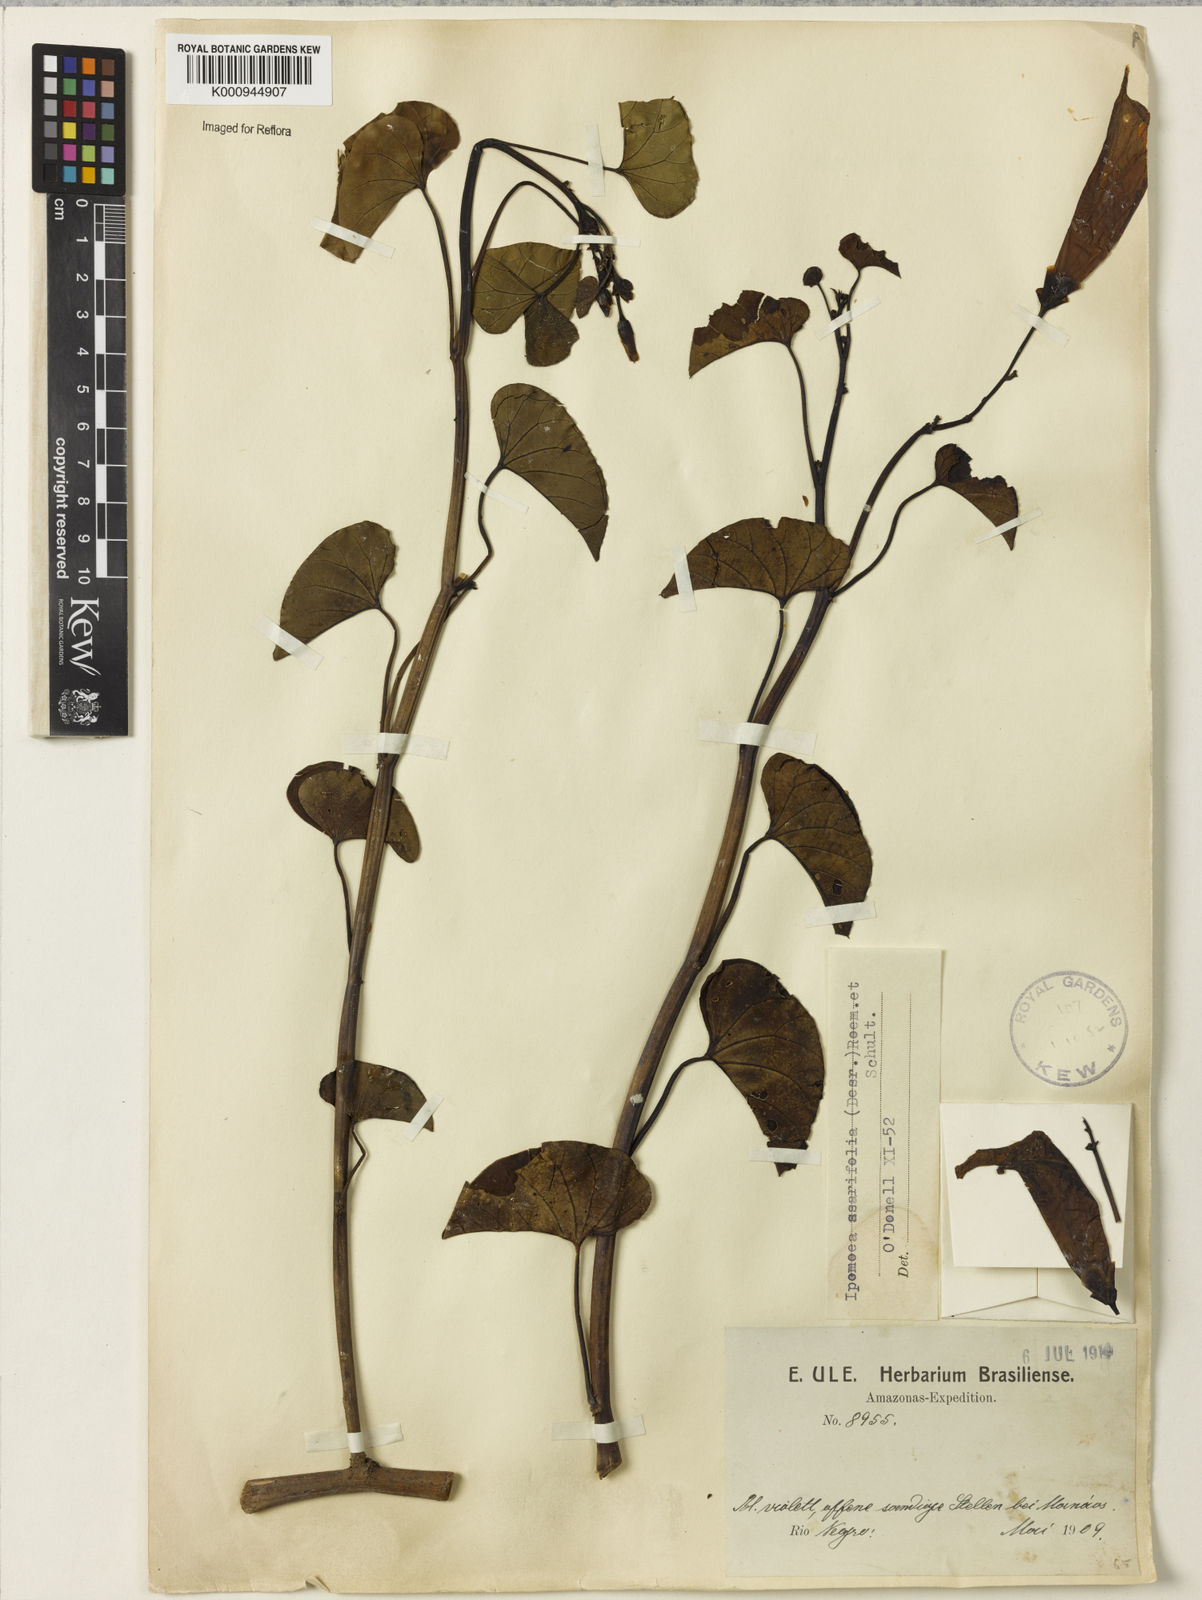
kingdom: Plantae
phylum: Tracheophyta
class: Magnoliopsida
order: Solanales
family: Convolvulaceae
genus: Ipomoea
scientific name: Ipomoea asarifolia
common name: Ginger-leaf morning-glory
